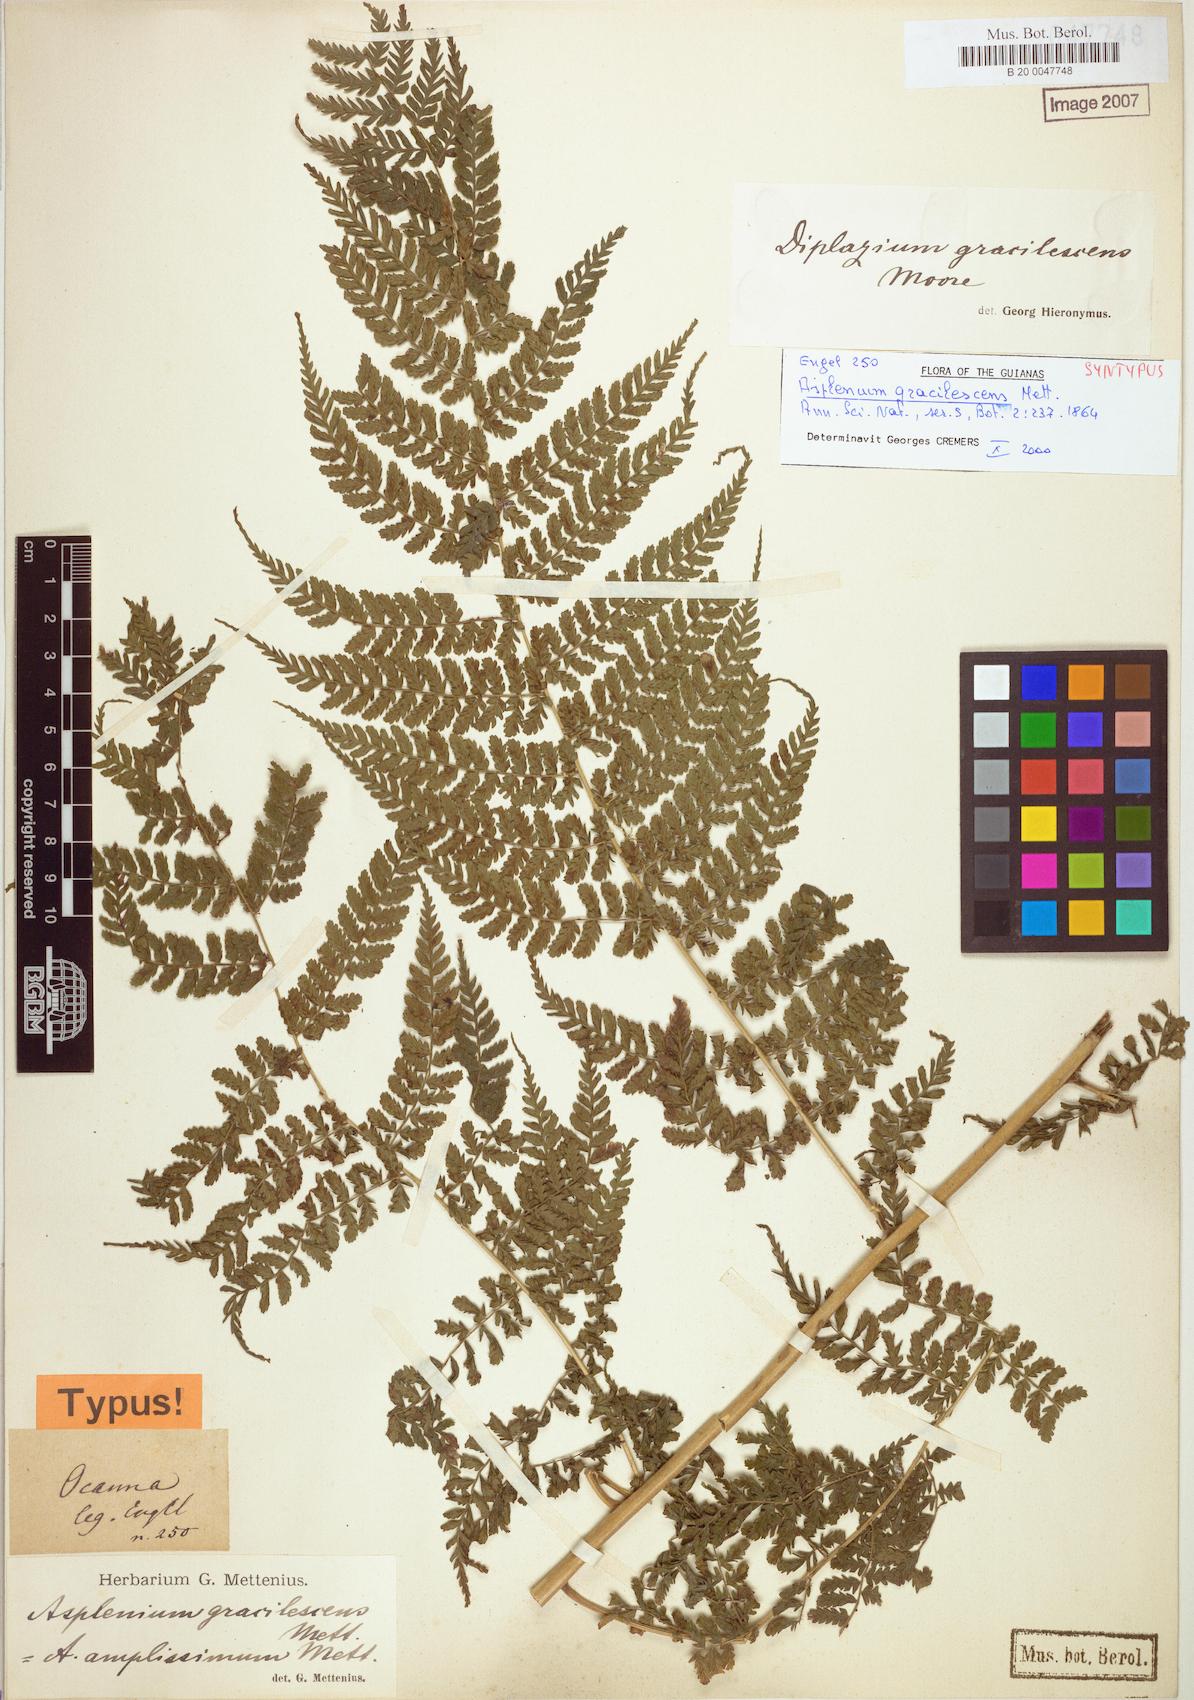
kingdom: Plantae
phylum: Tracheophyta
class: Polypodiopsida
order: Polypodiales
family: Athyriaceae
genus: Diplazium
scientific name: Diplazium gracilescens
